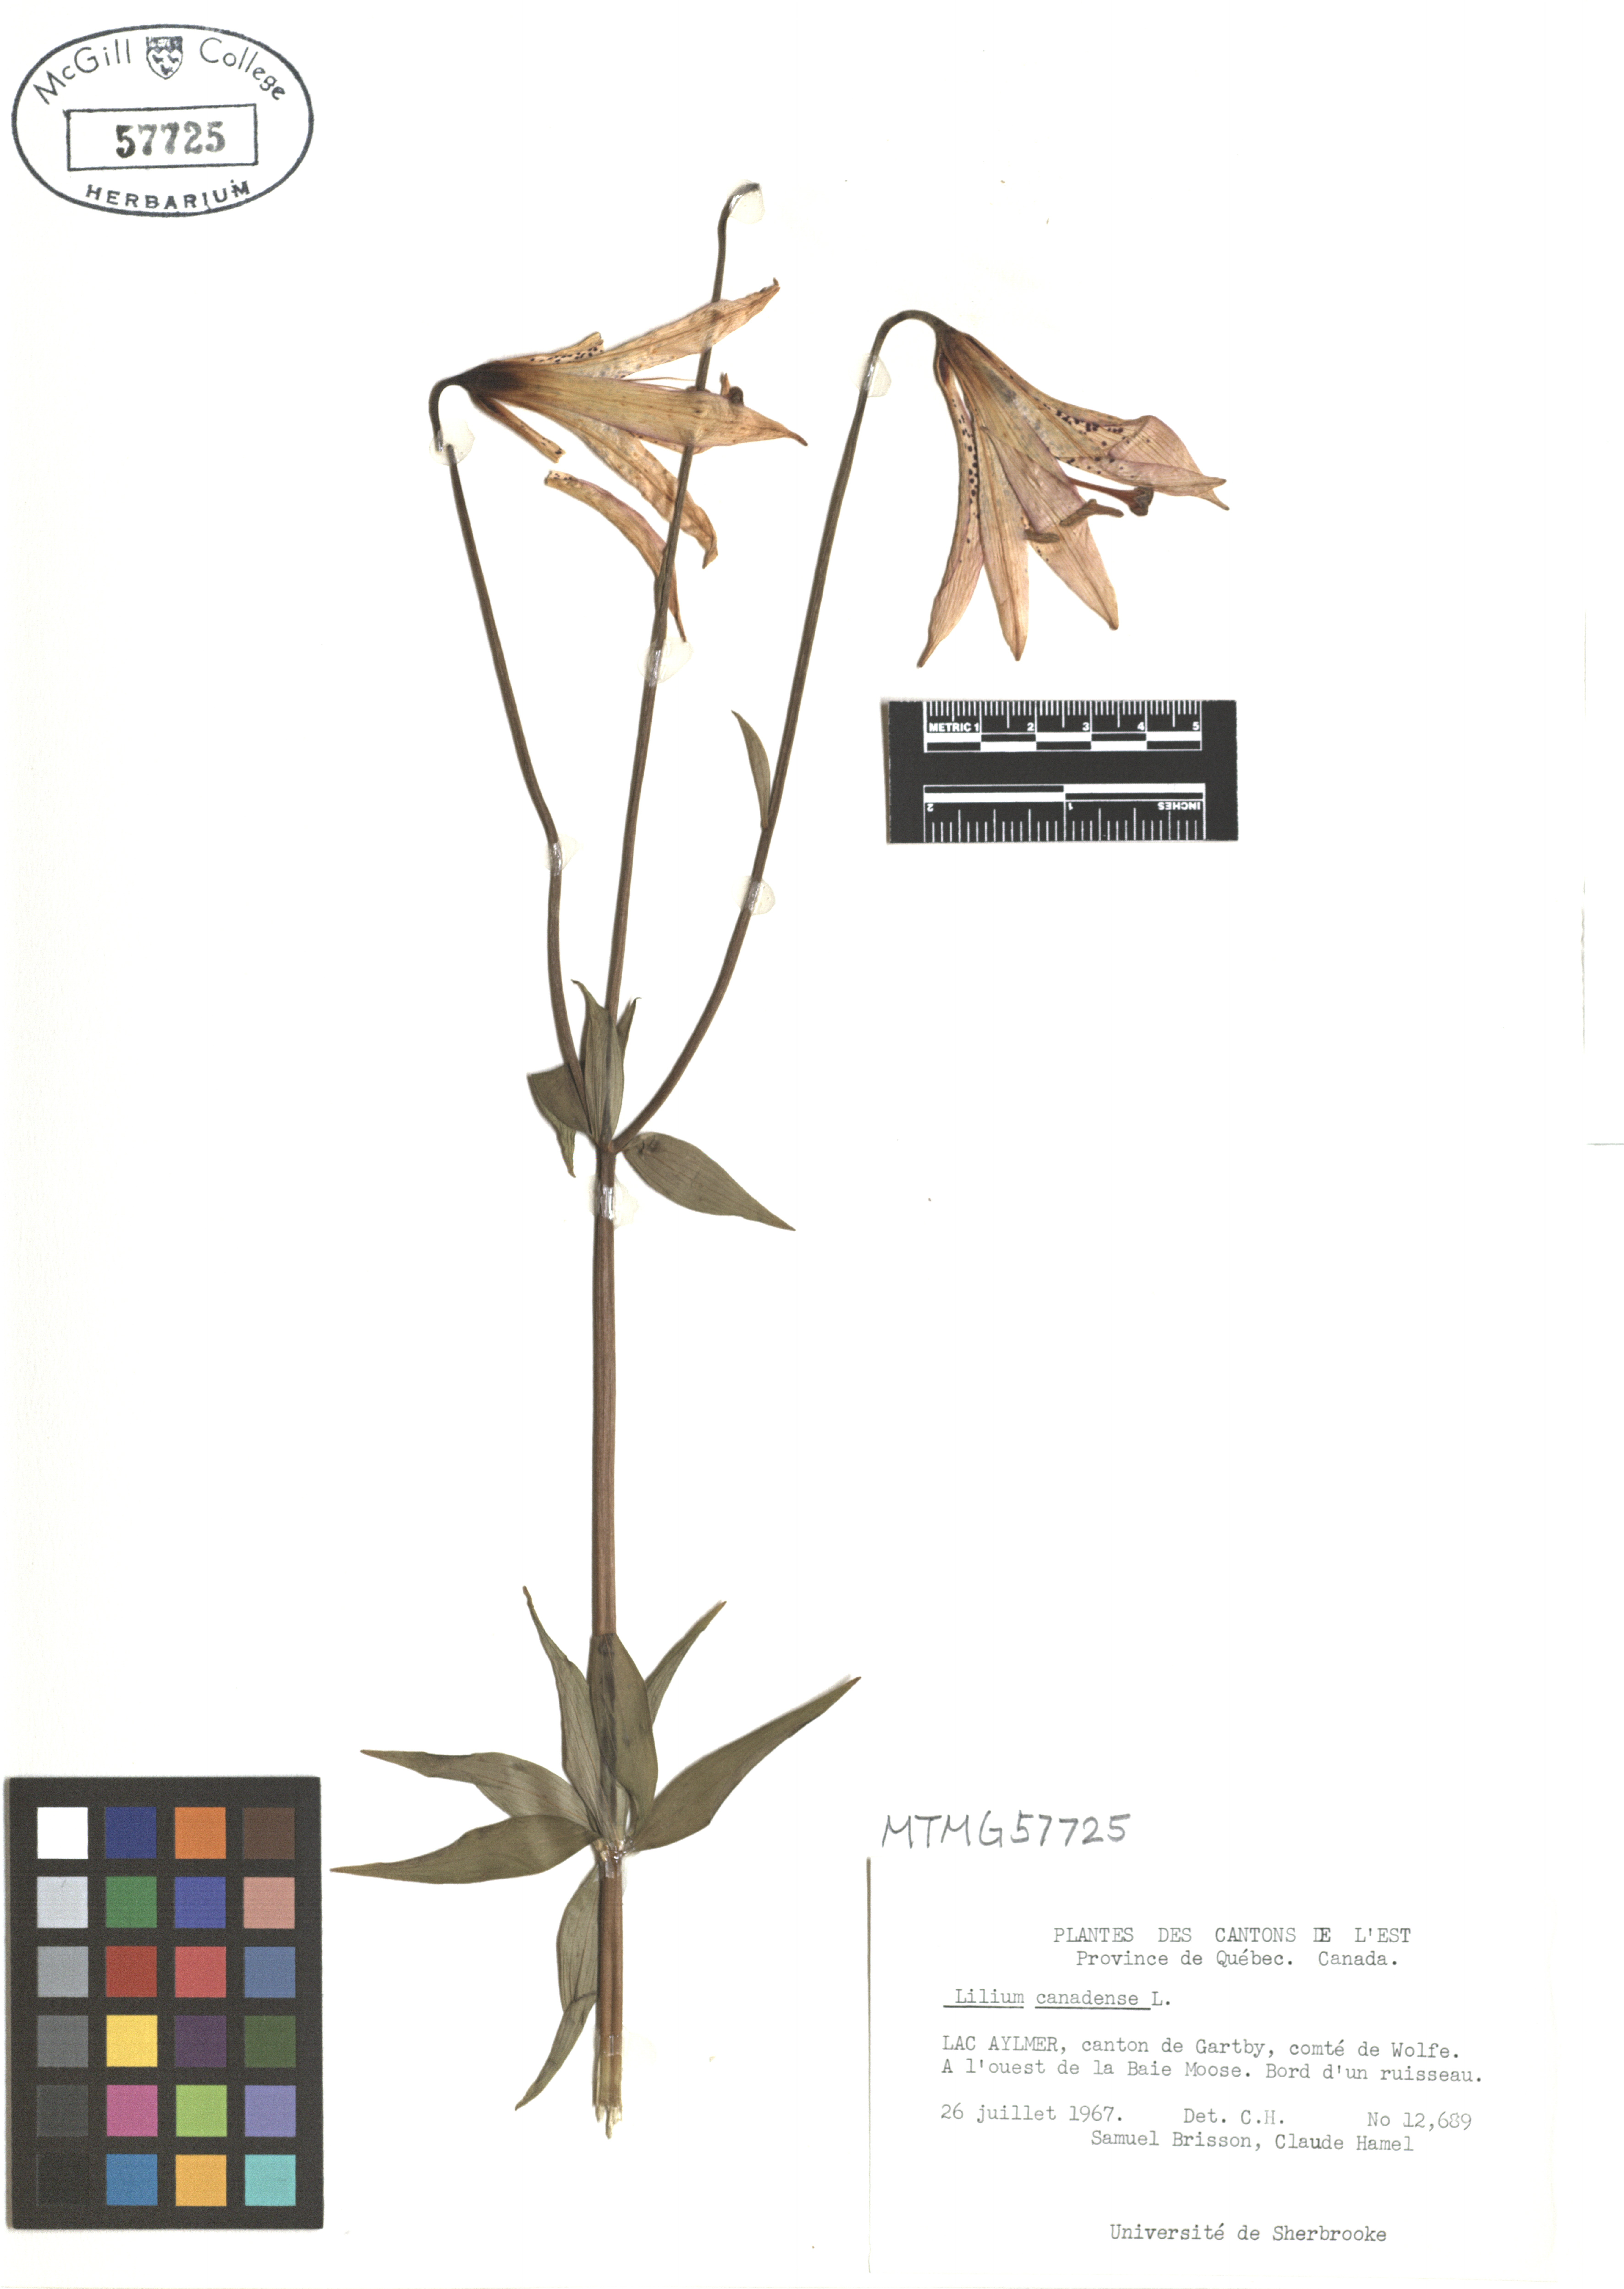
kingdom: Plantae
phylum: Tracheophyta
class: Liliopsida
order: Liliales
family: Liliaceae
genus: Lilium
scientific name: Lilium canadense
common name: Canada lily
